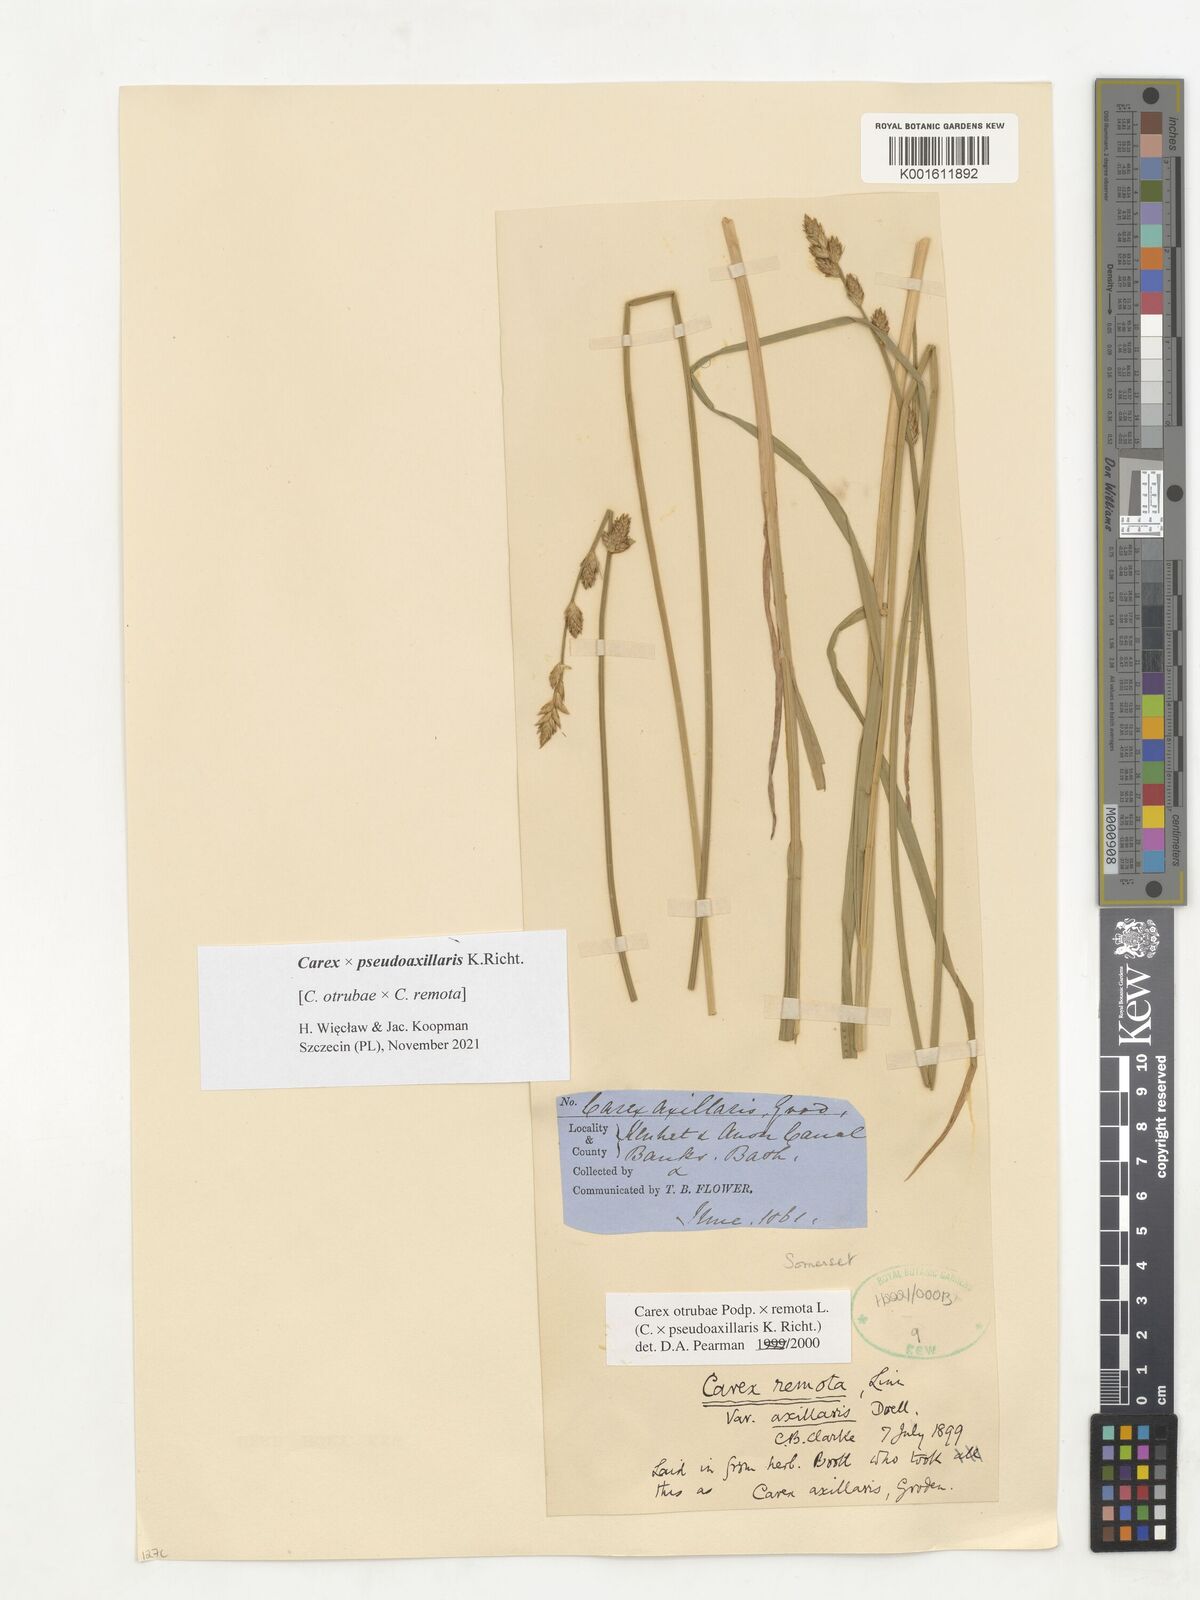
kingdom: Plantae
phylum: Tracheophyta
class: Liliopsida
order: Poales
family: Cyperaceae
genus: Carex
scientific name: Carex pseudoaxillaris
